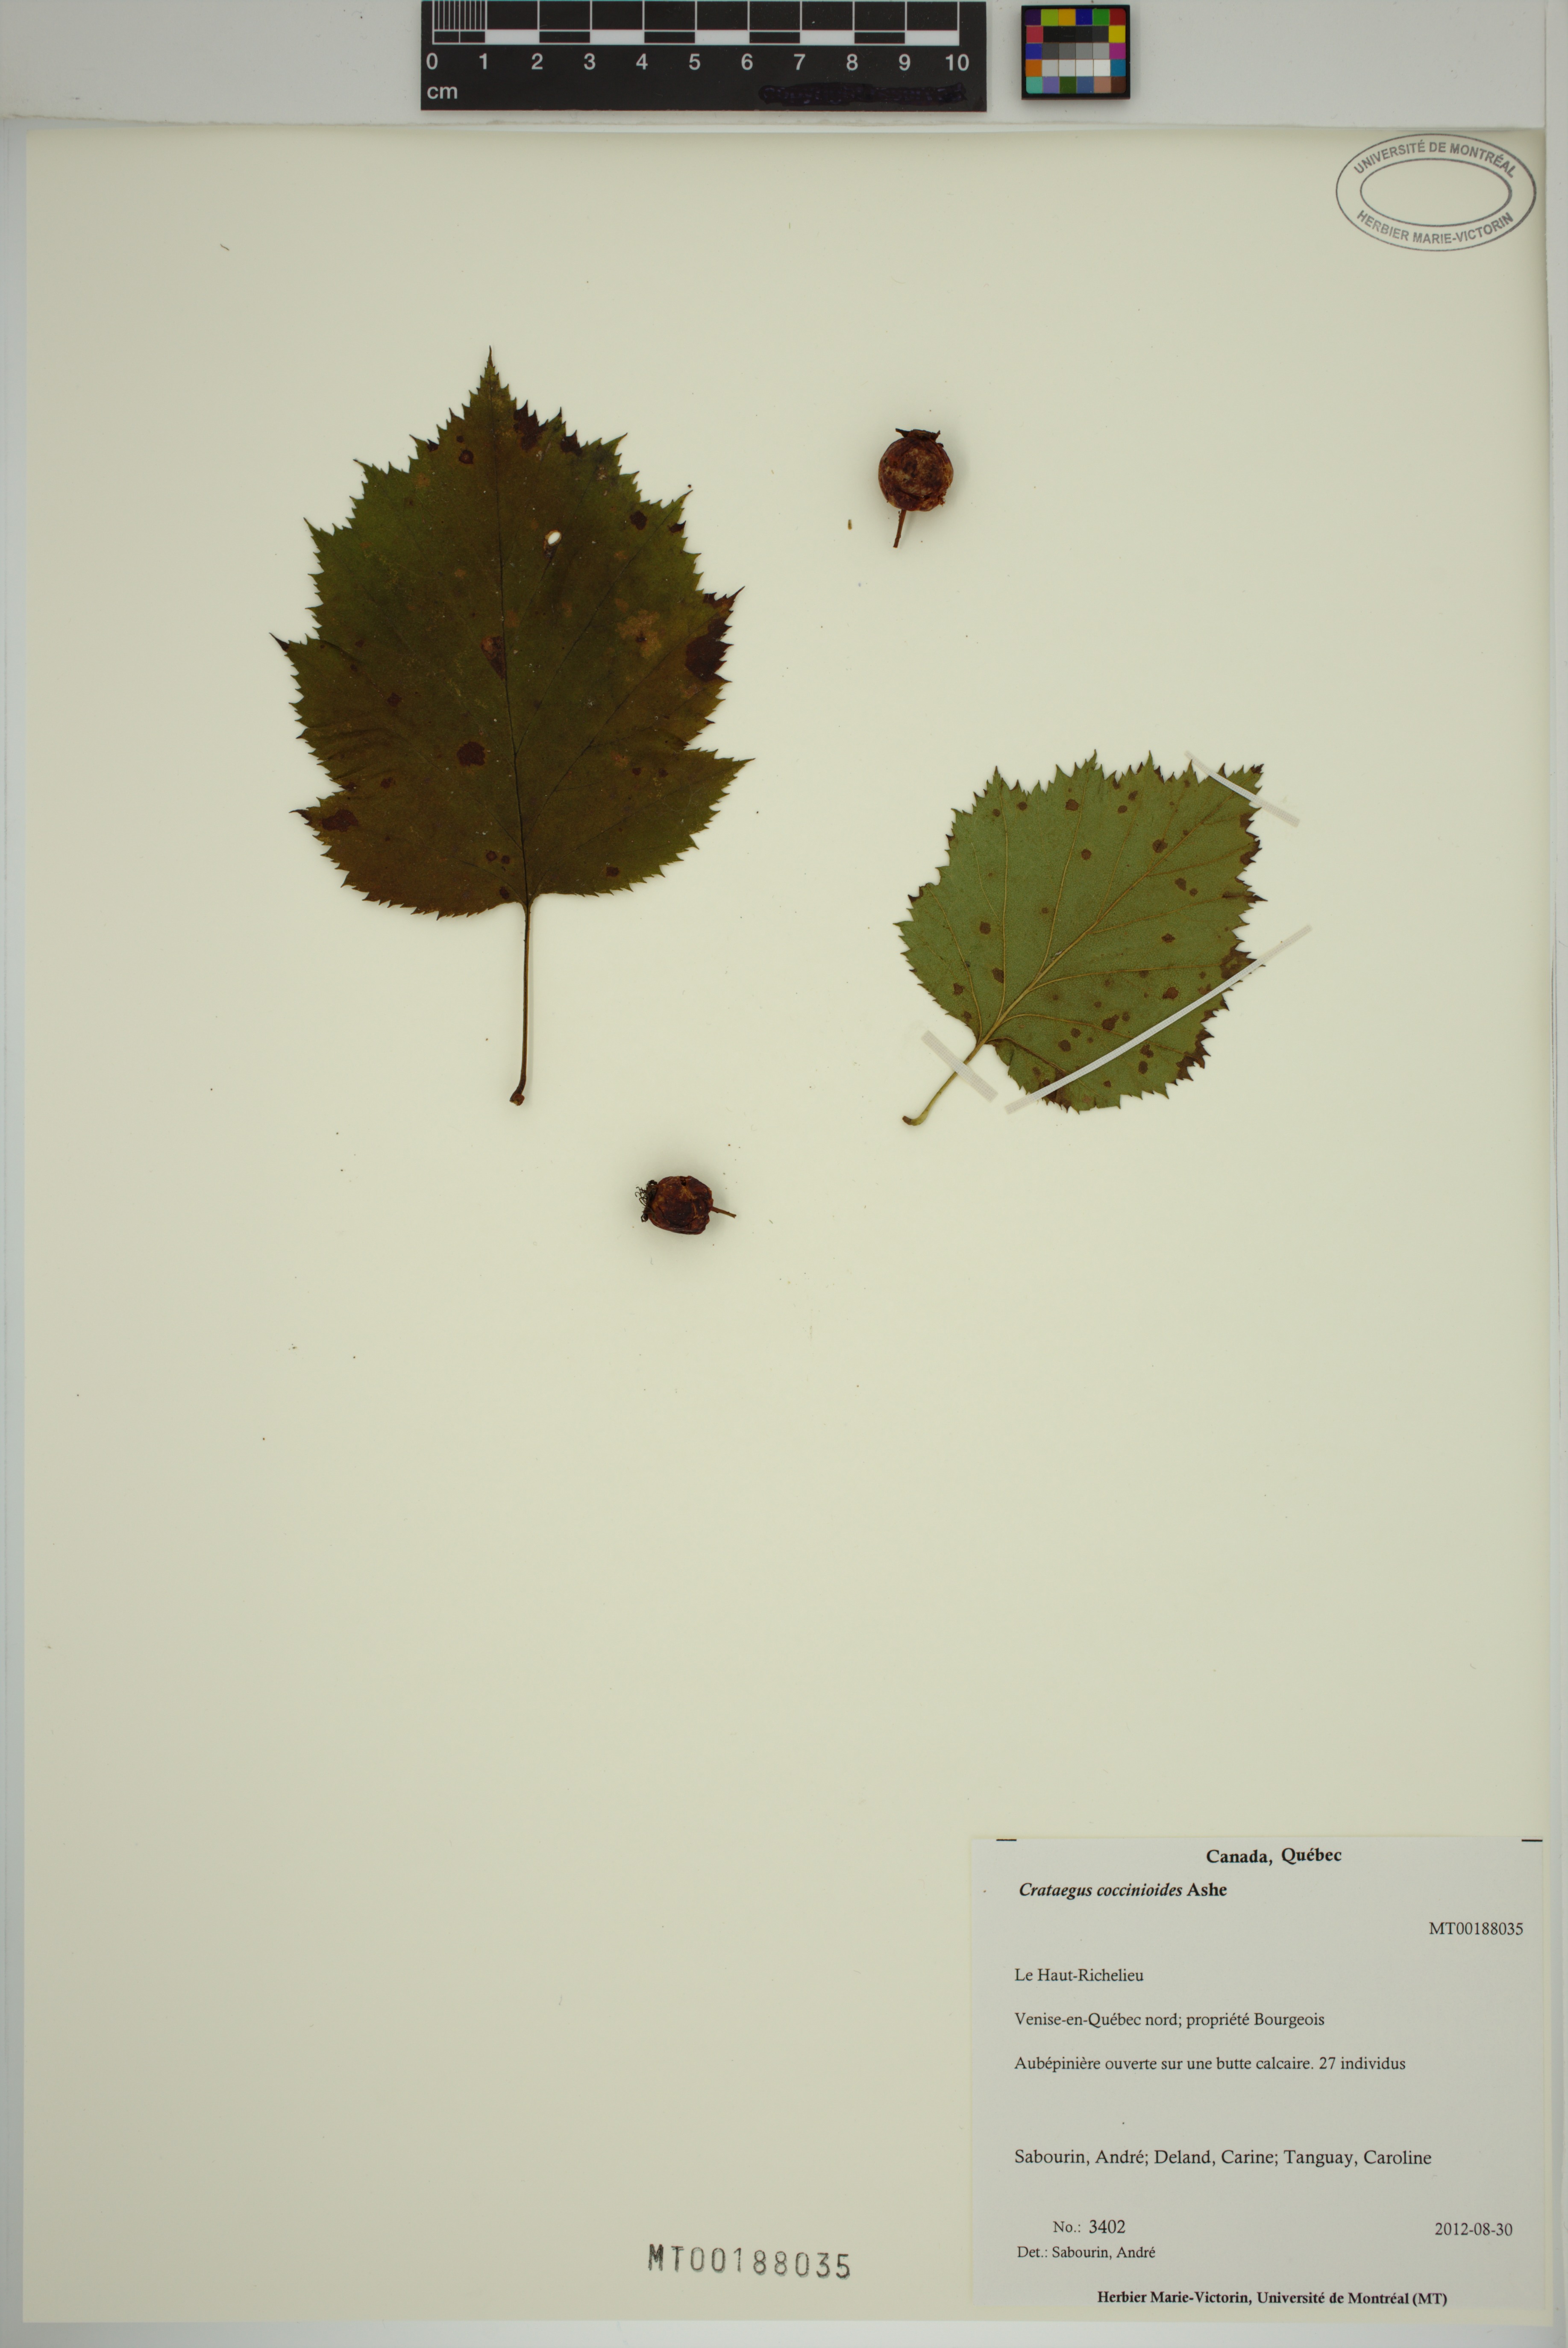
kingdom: Plantae
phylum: Tracheophyta
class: Magnoliopsida
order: Rosales
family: Rosaceae
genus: Crataegus
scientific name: Crataegus coccinioides
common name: Large-flowered cockspurthorn
